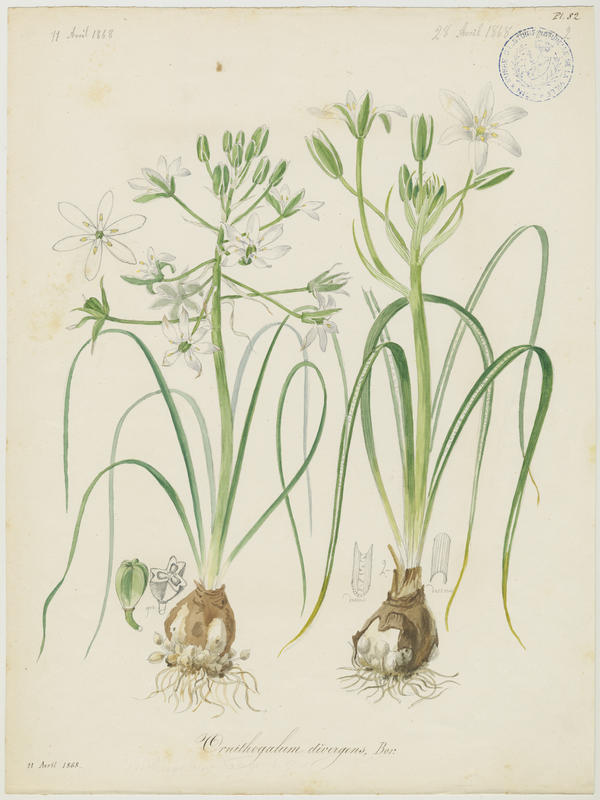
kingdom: Plantae
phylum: Tracheophyta
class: Liliopsida
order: Asparagales
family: Asparagaceae
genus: Ornithogalum
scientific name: Ornithogalum umbellatum
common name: Garden star-of-bethlehem
